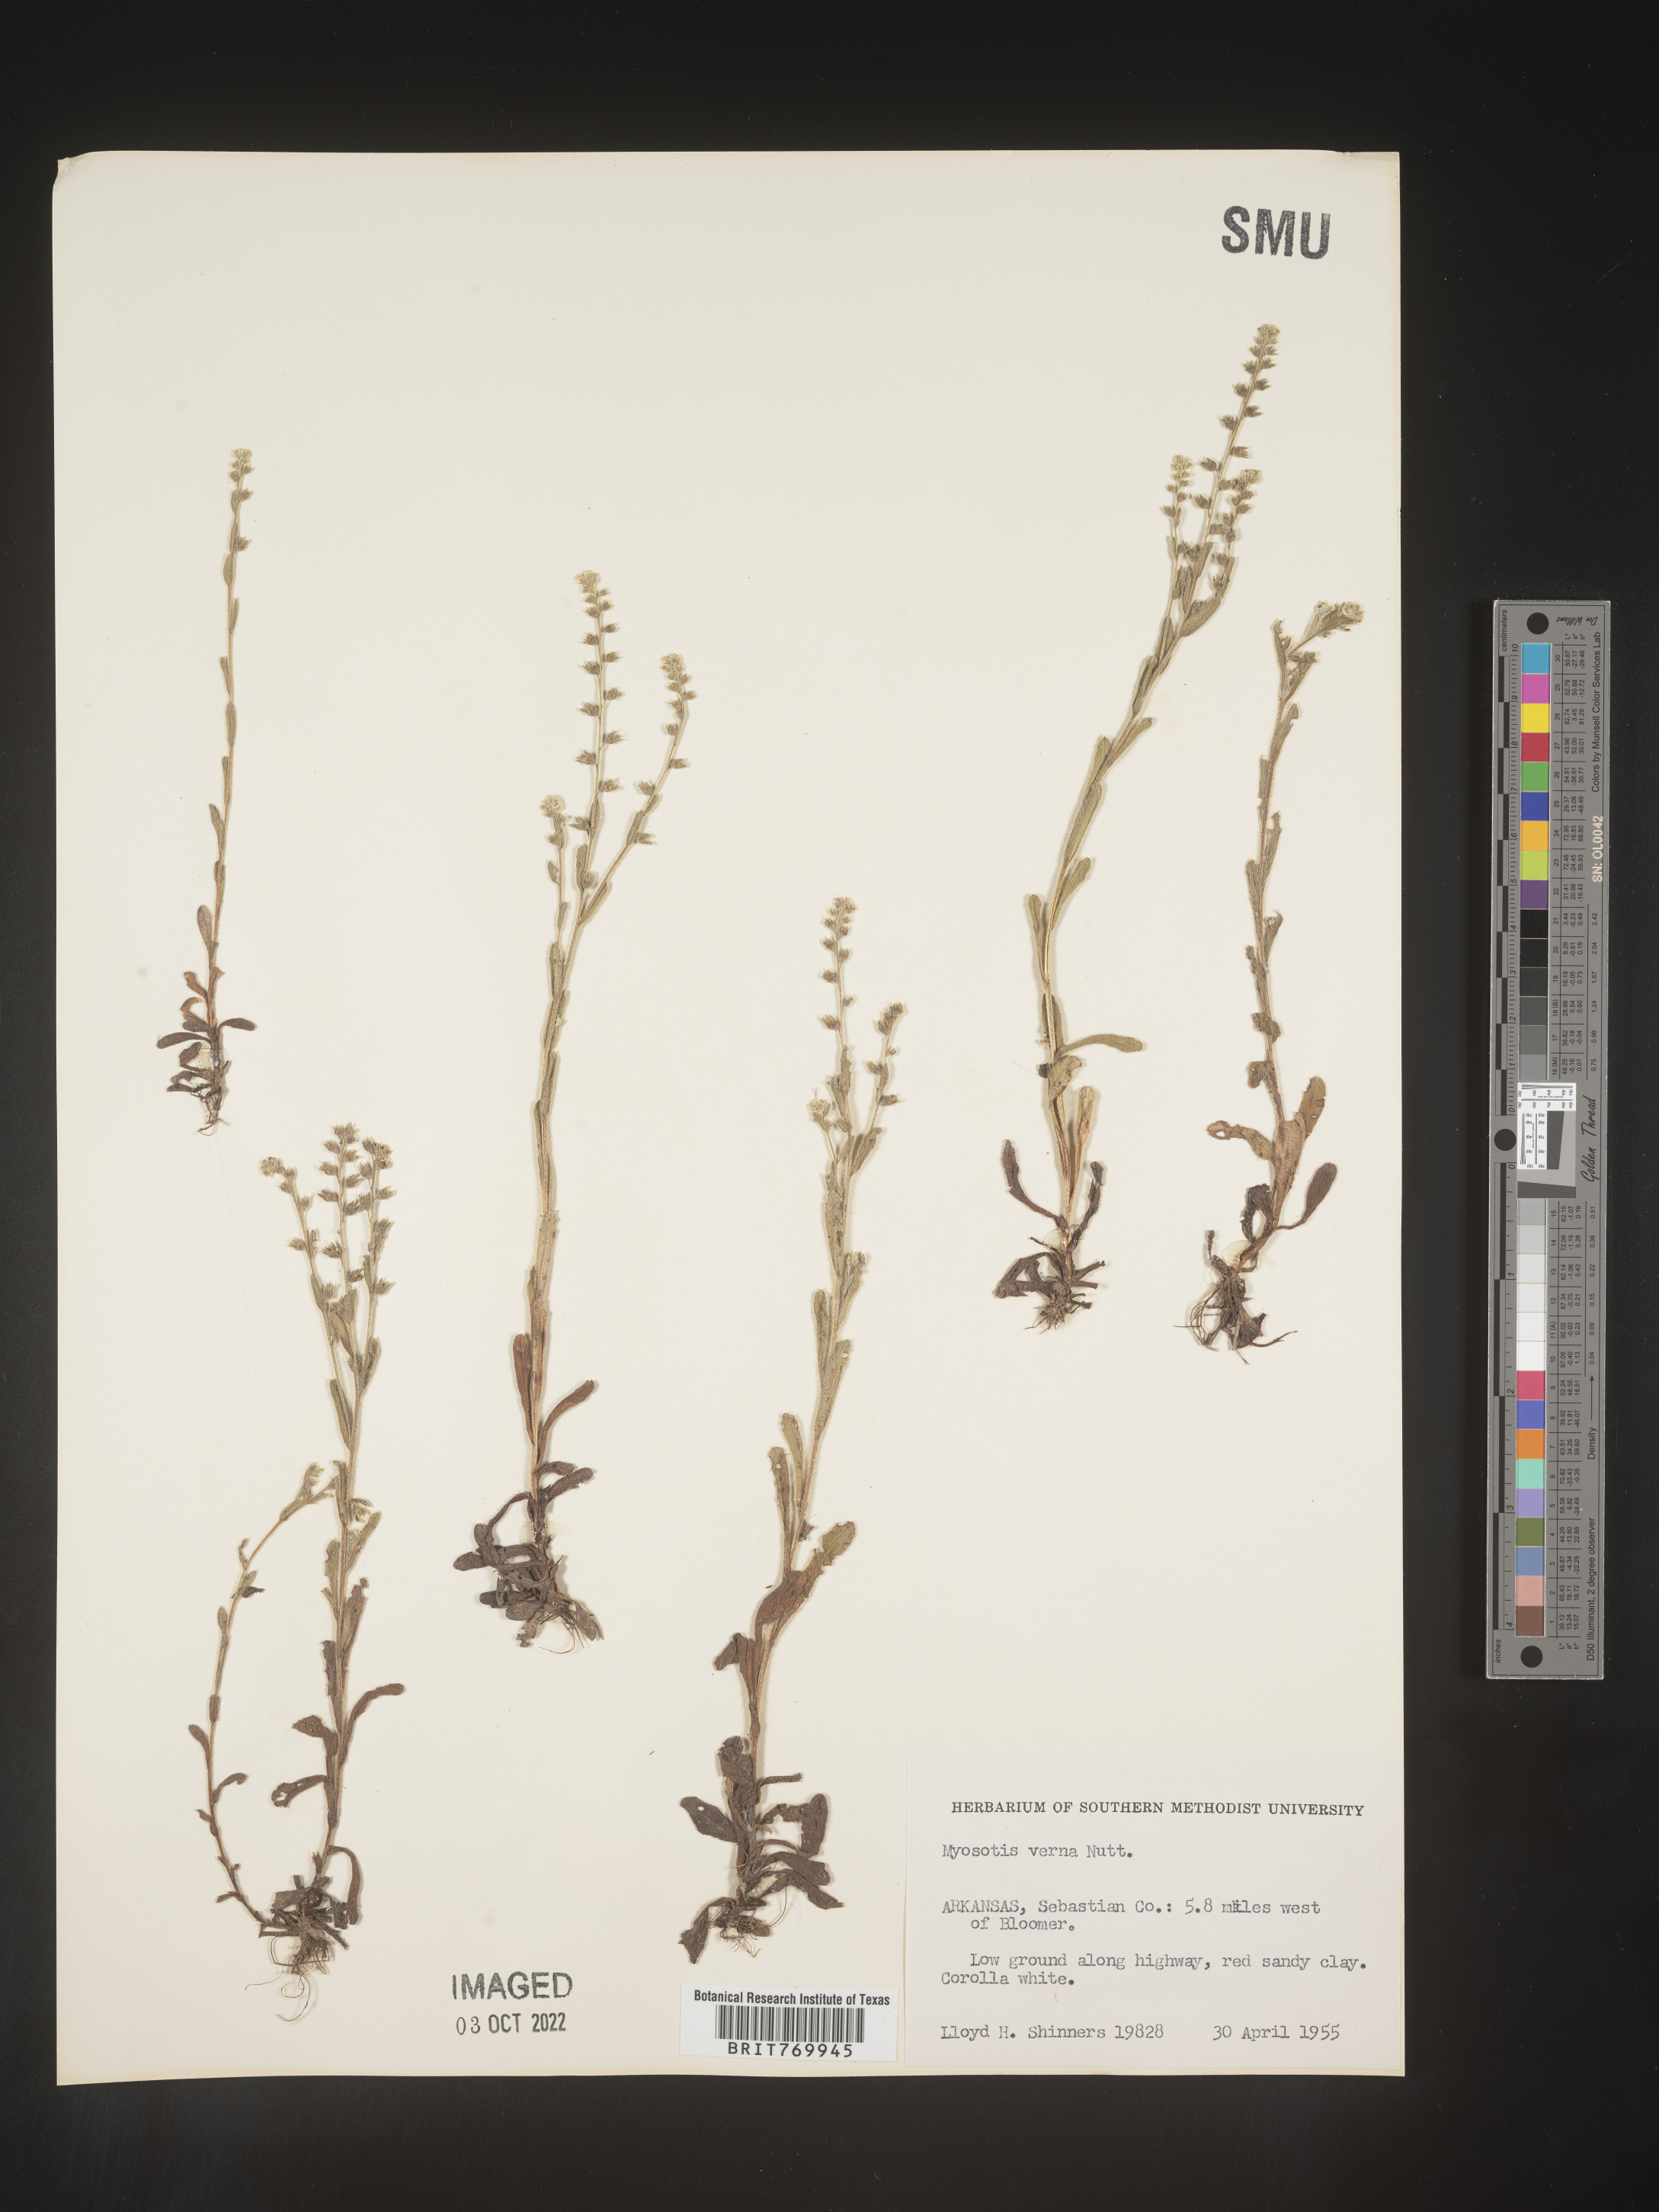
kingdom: Plantae
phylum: Tracheophyta
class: Magnoliopsida
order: Boraginales
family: Boraginaceae
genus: Myosotis
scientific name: Myosotis verna
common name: Early forget-me-not
